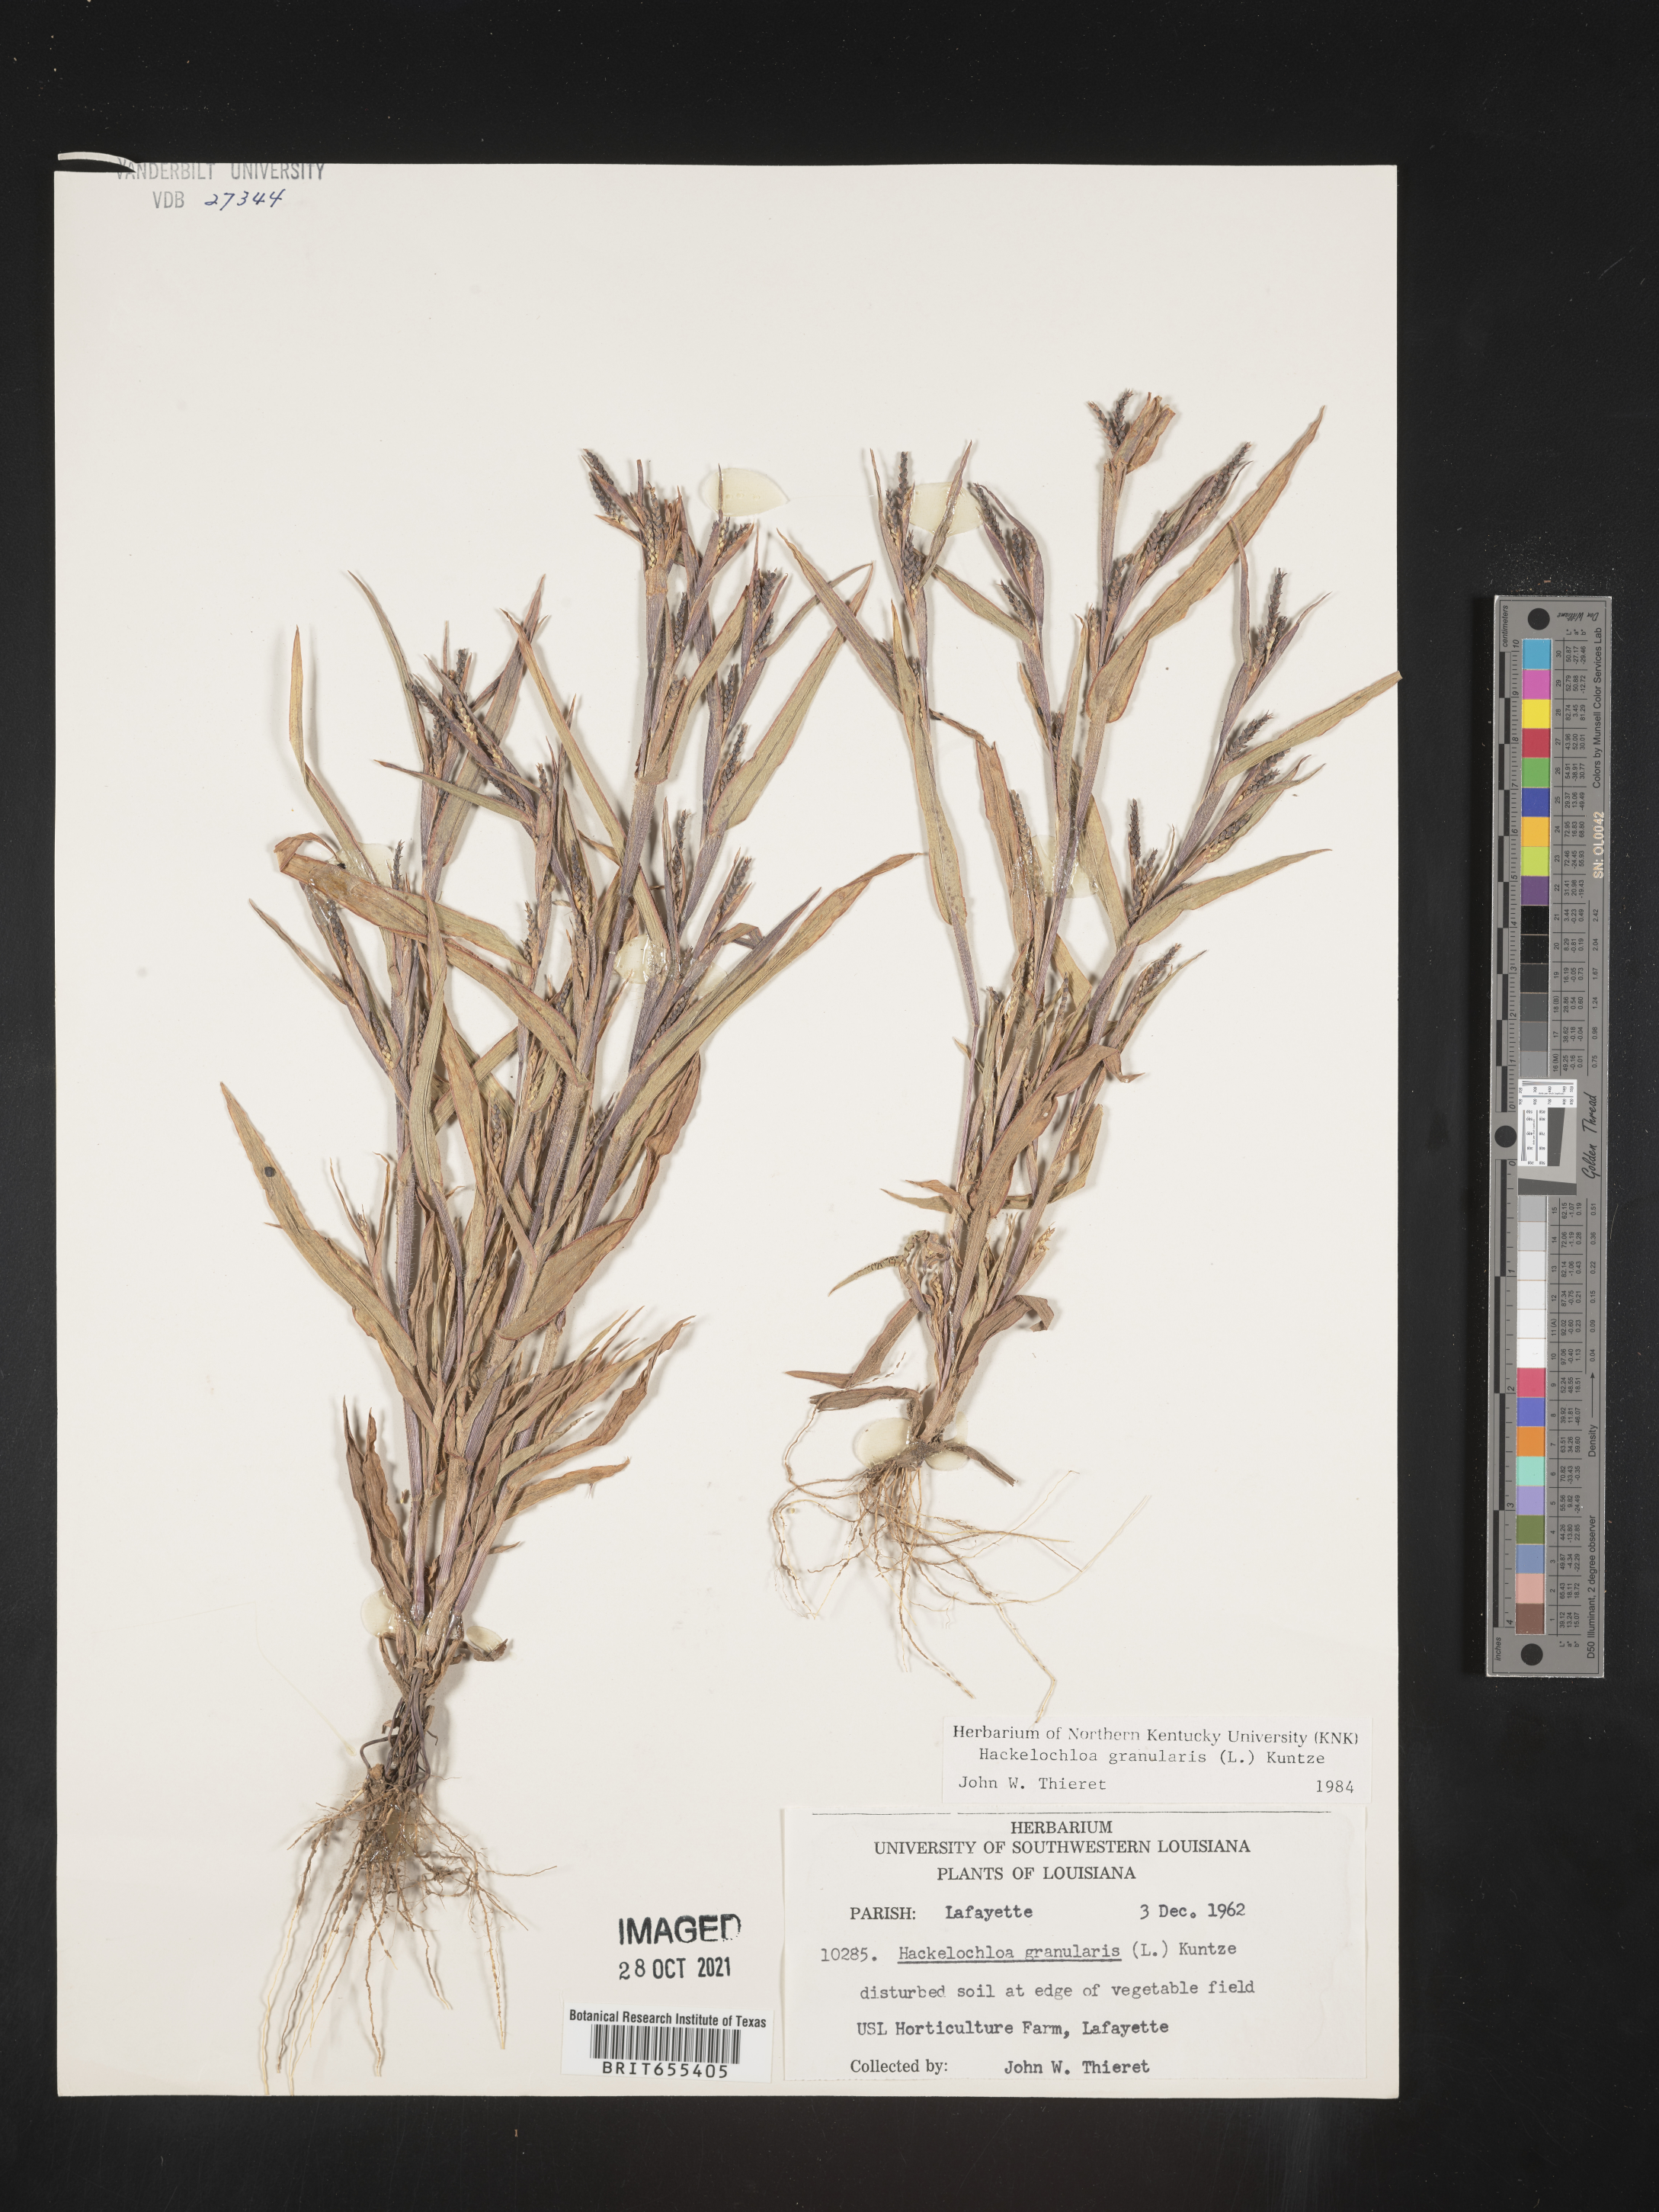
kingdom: Plantae
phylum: Tracheophyta
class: Liliopsida
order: Poales
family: Poaceae
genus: Hackelochloa
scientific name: Hackelochloa
